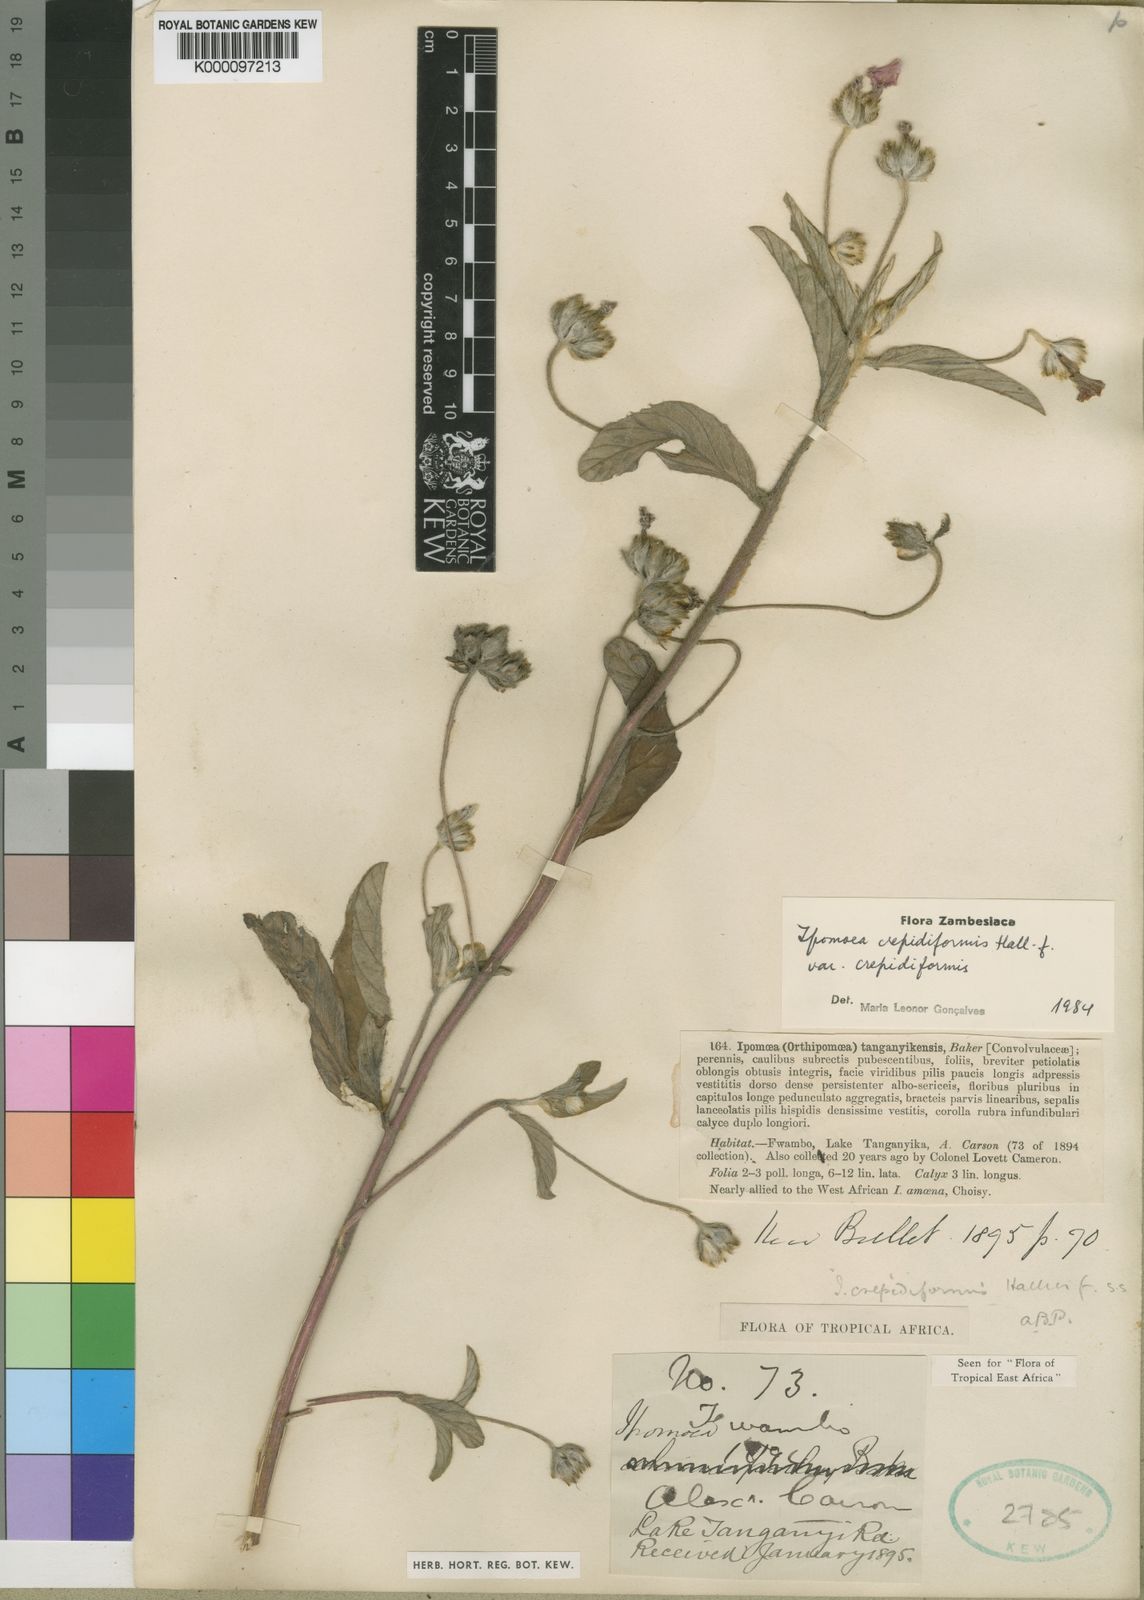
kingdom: Plantae
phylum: Tracheophyta
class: Magnoliopsida
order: Solanales
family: Convolvulaceae
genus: Ipomoea
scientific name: Ipomoea crepidiformis
